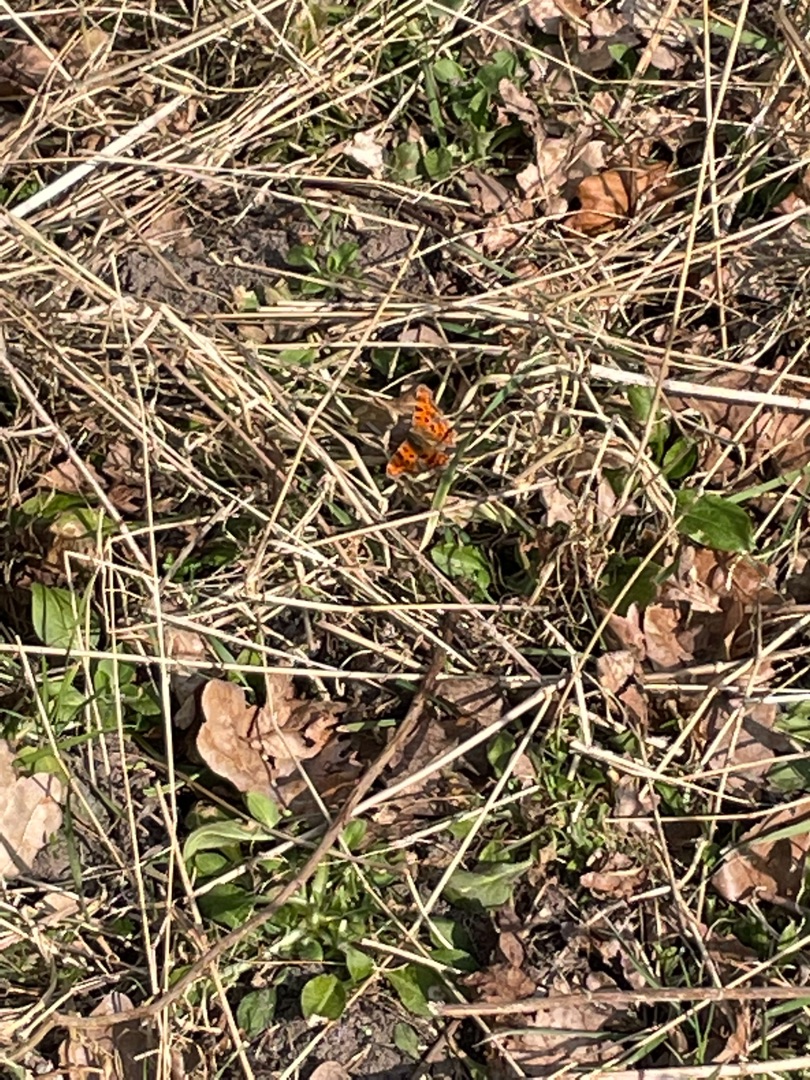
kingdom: Animalia
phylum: Arthropoda
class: Insecta
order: Lepidoptera
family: Nymphalidae
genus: Polygonia
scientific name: Polygonia c-album
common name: Det hvide C
